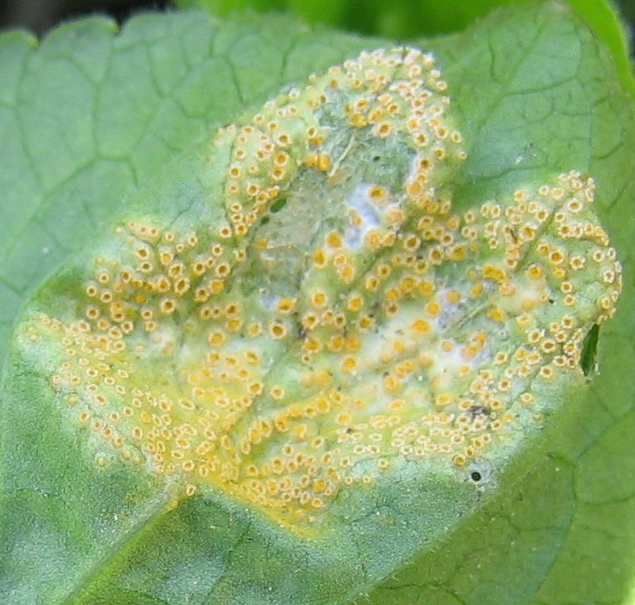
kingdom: Fungi
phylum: Basidiomycota
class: Pucciniomycetes
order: Pucciniales
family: Pucciniaceae
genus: Puccinia
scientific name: Puccinia violae
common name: viol-tvecellerust
